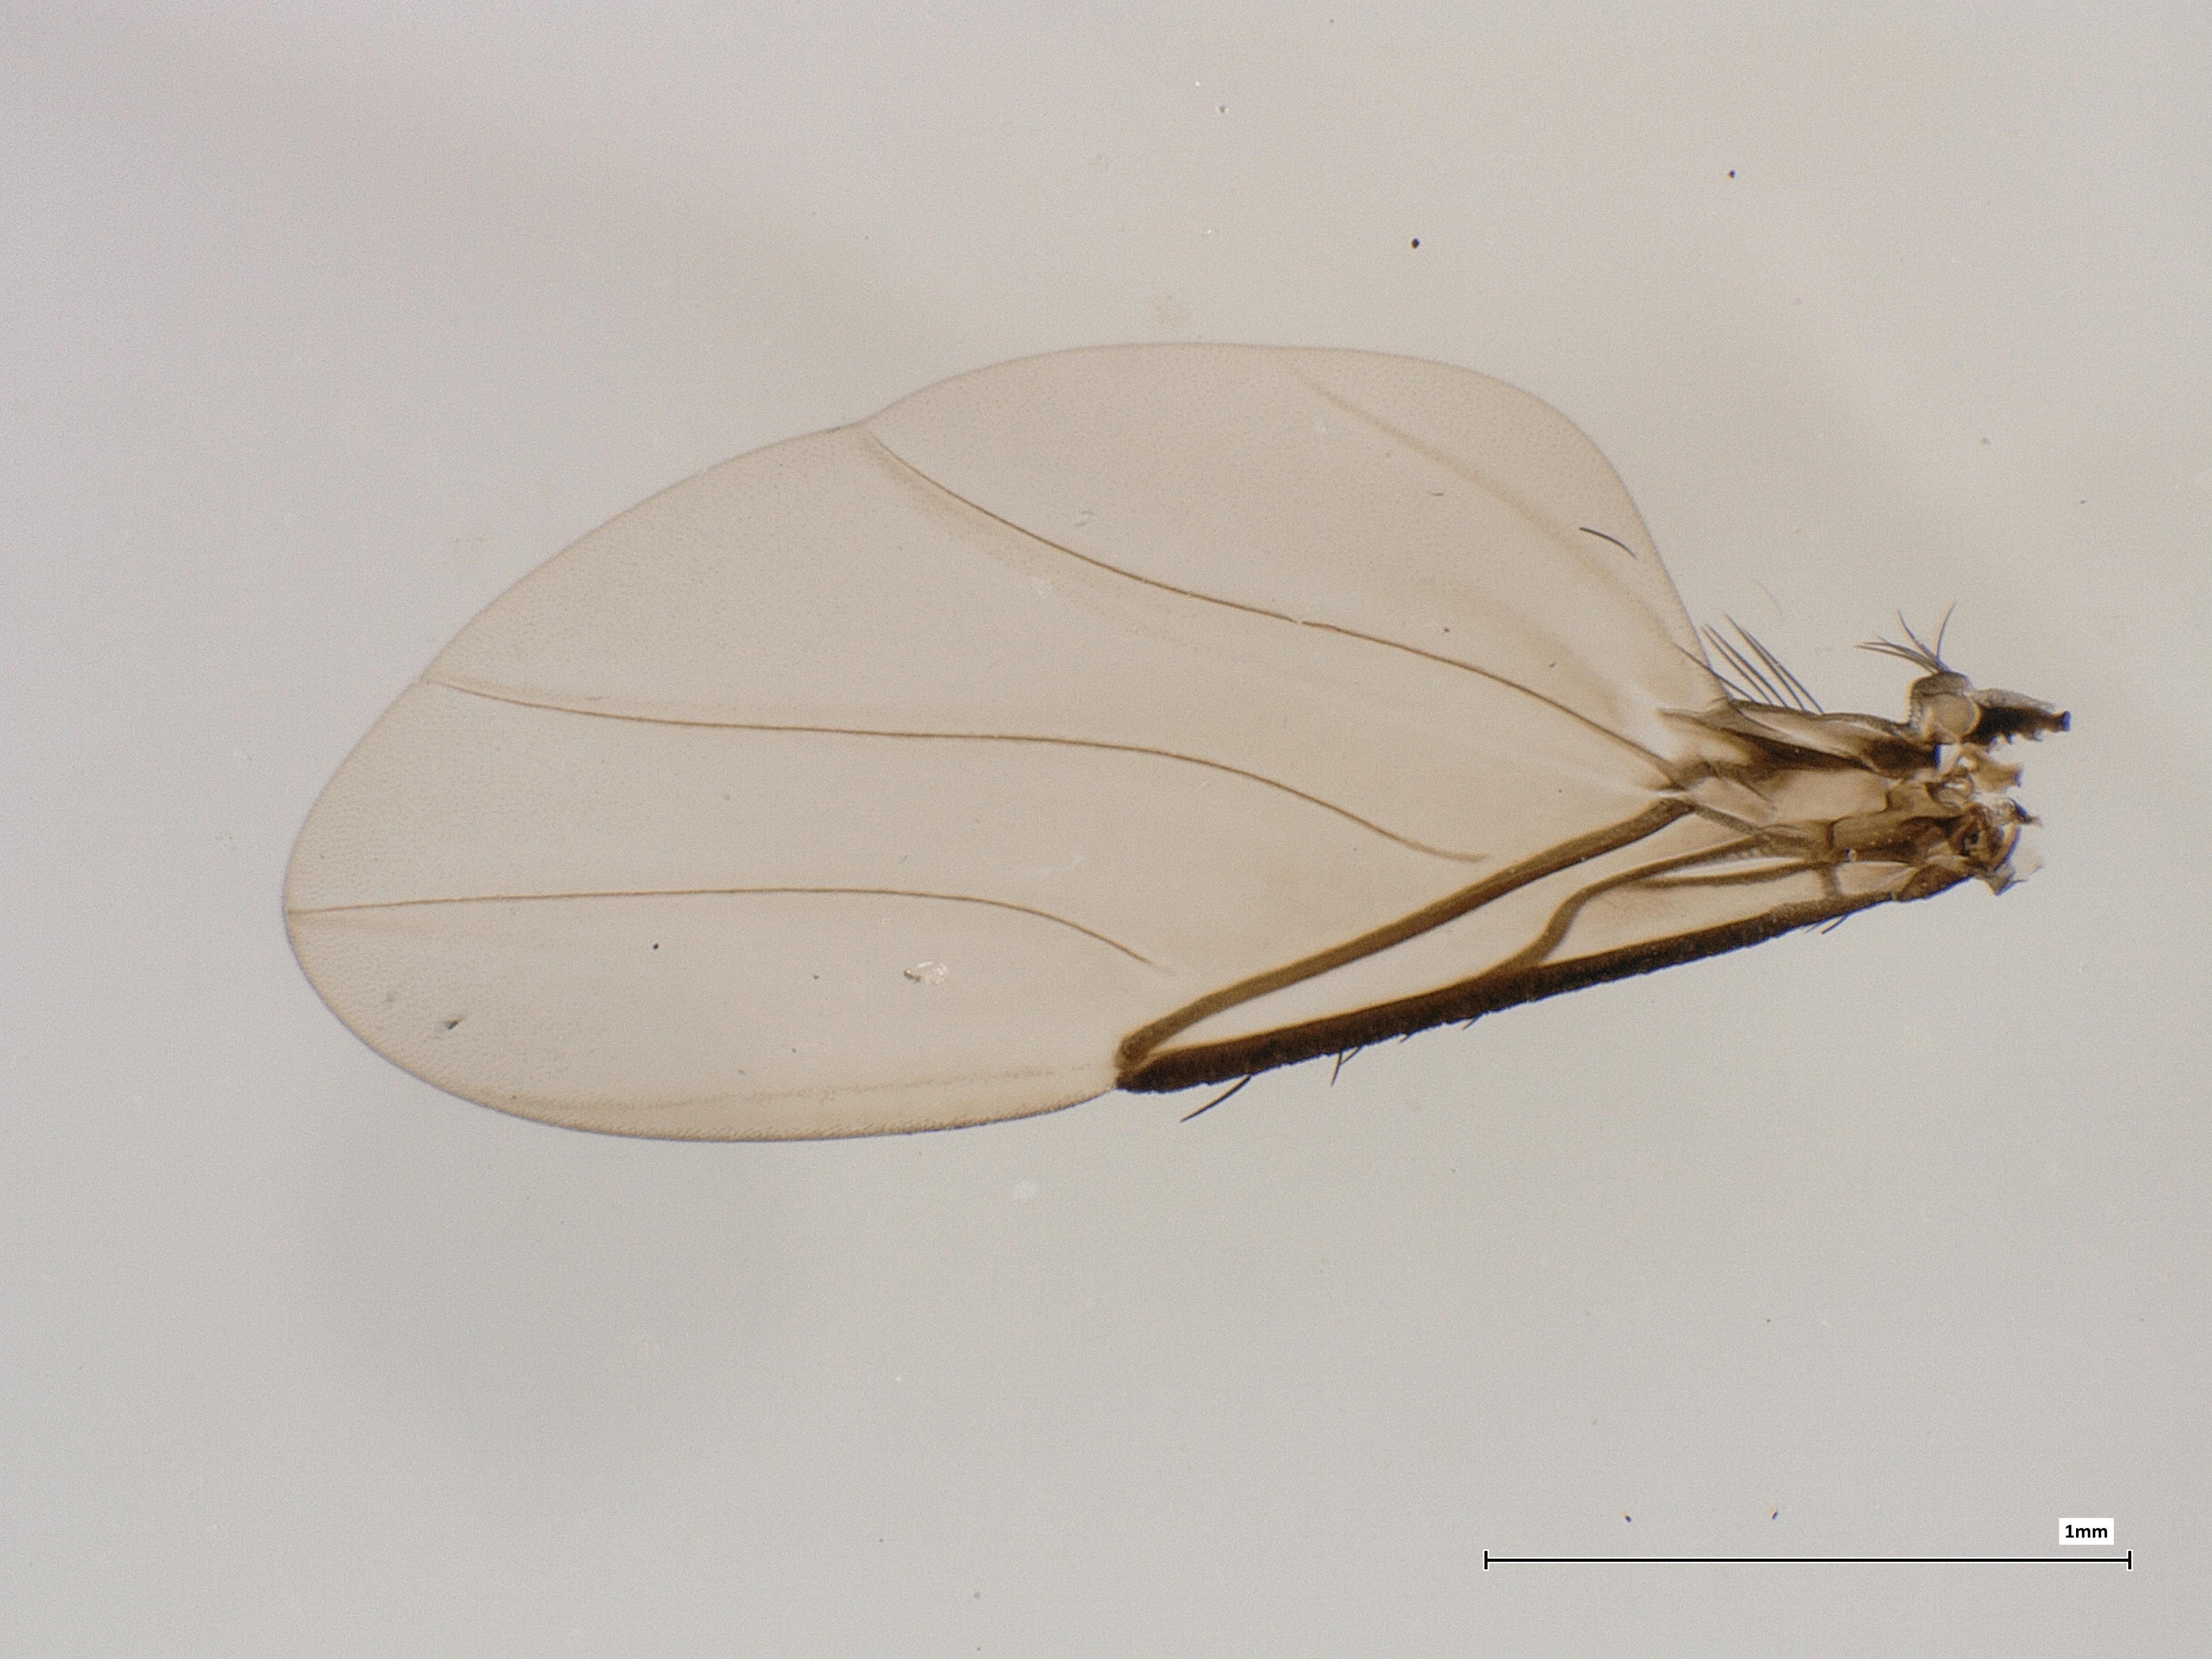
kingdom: Animalia
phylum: Arthropoda
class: Insecta
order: Diptera
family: Phoridae
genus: Phora
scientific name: Phora tincta
